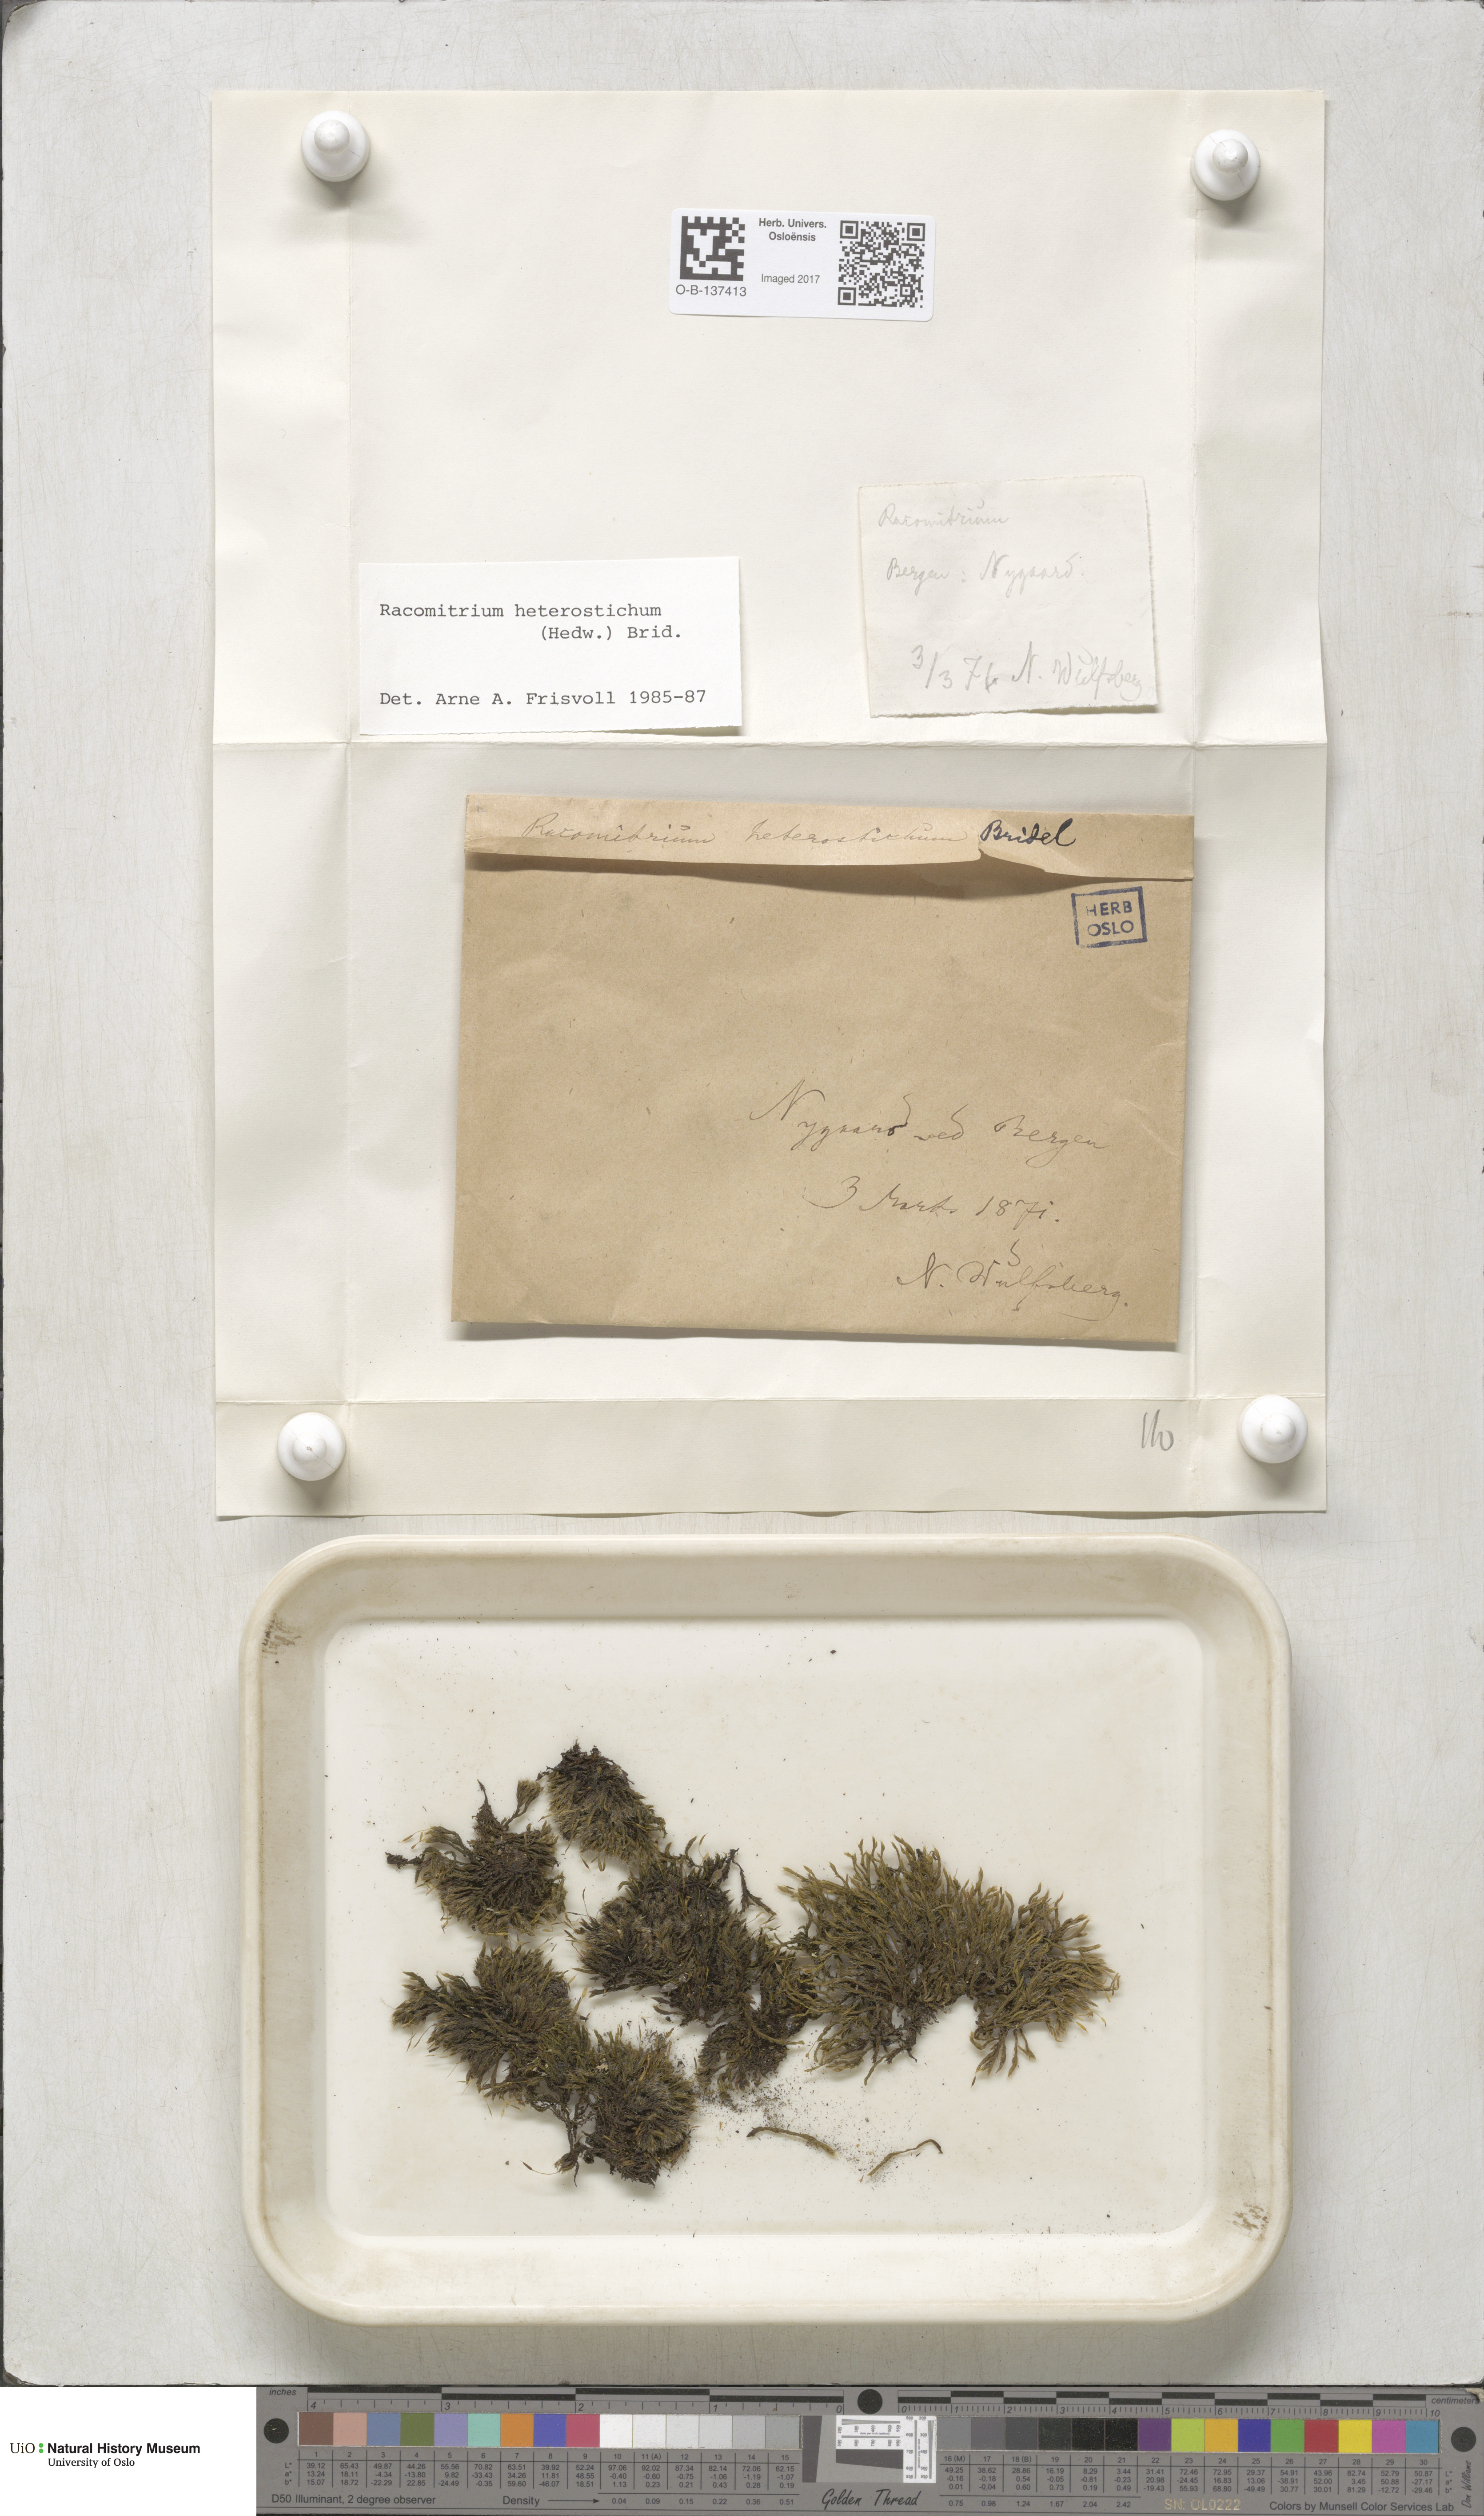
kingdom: Plantae
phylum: Bryophyta
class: Bryopsida
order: Grimmiales
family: Grimmiaceae
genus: Bucklandiella
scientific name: Bucklandiella heterosticha
